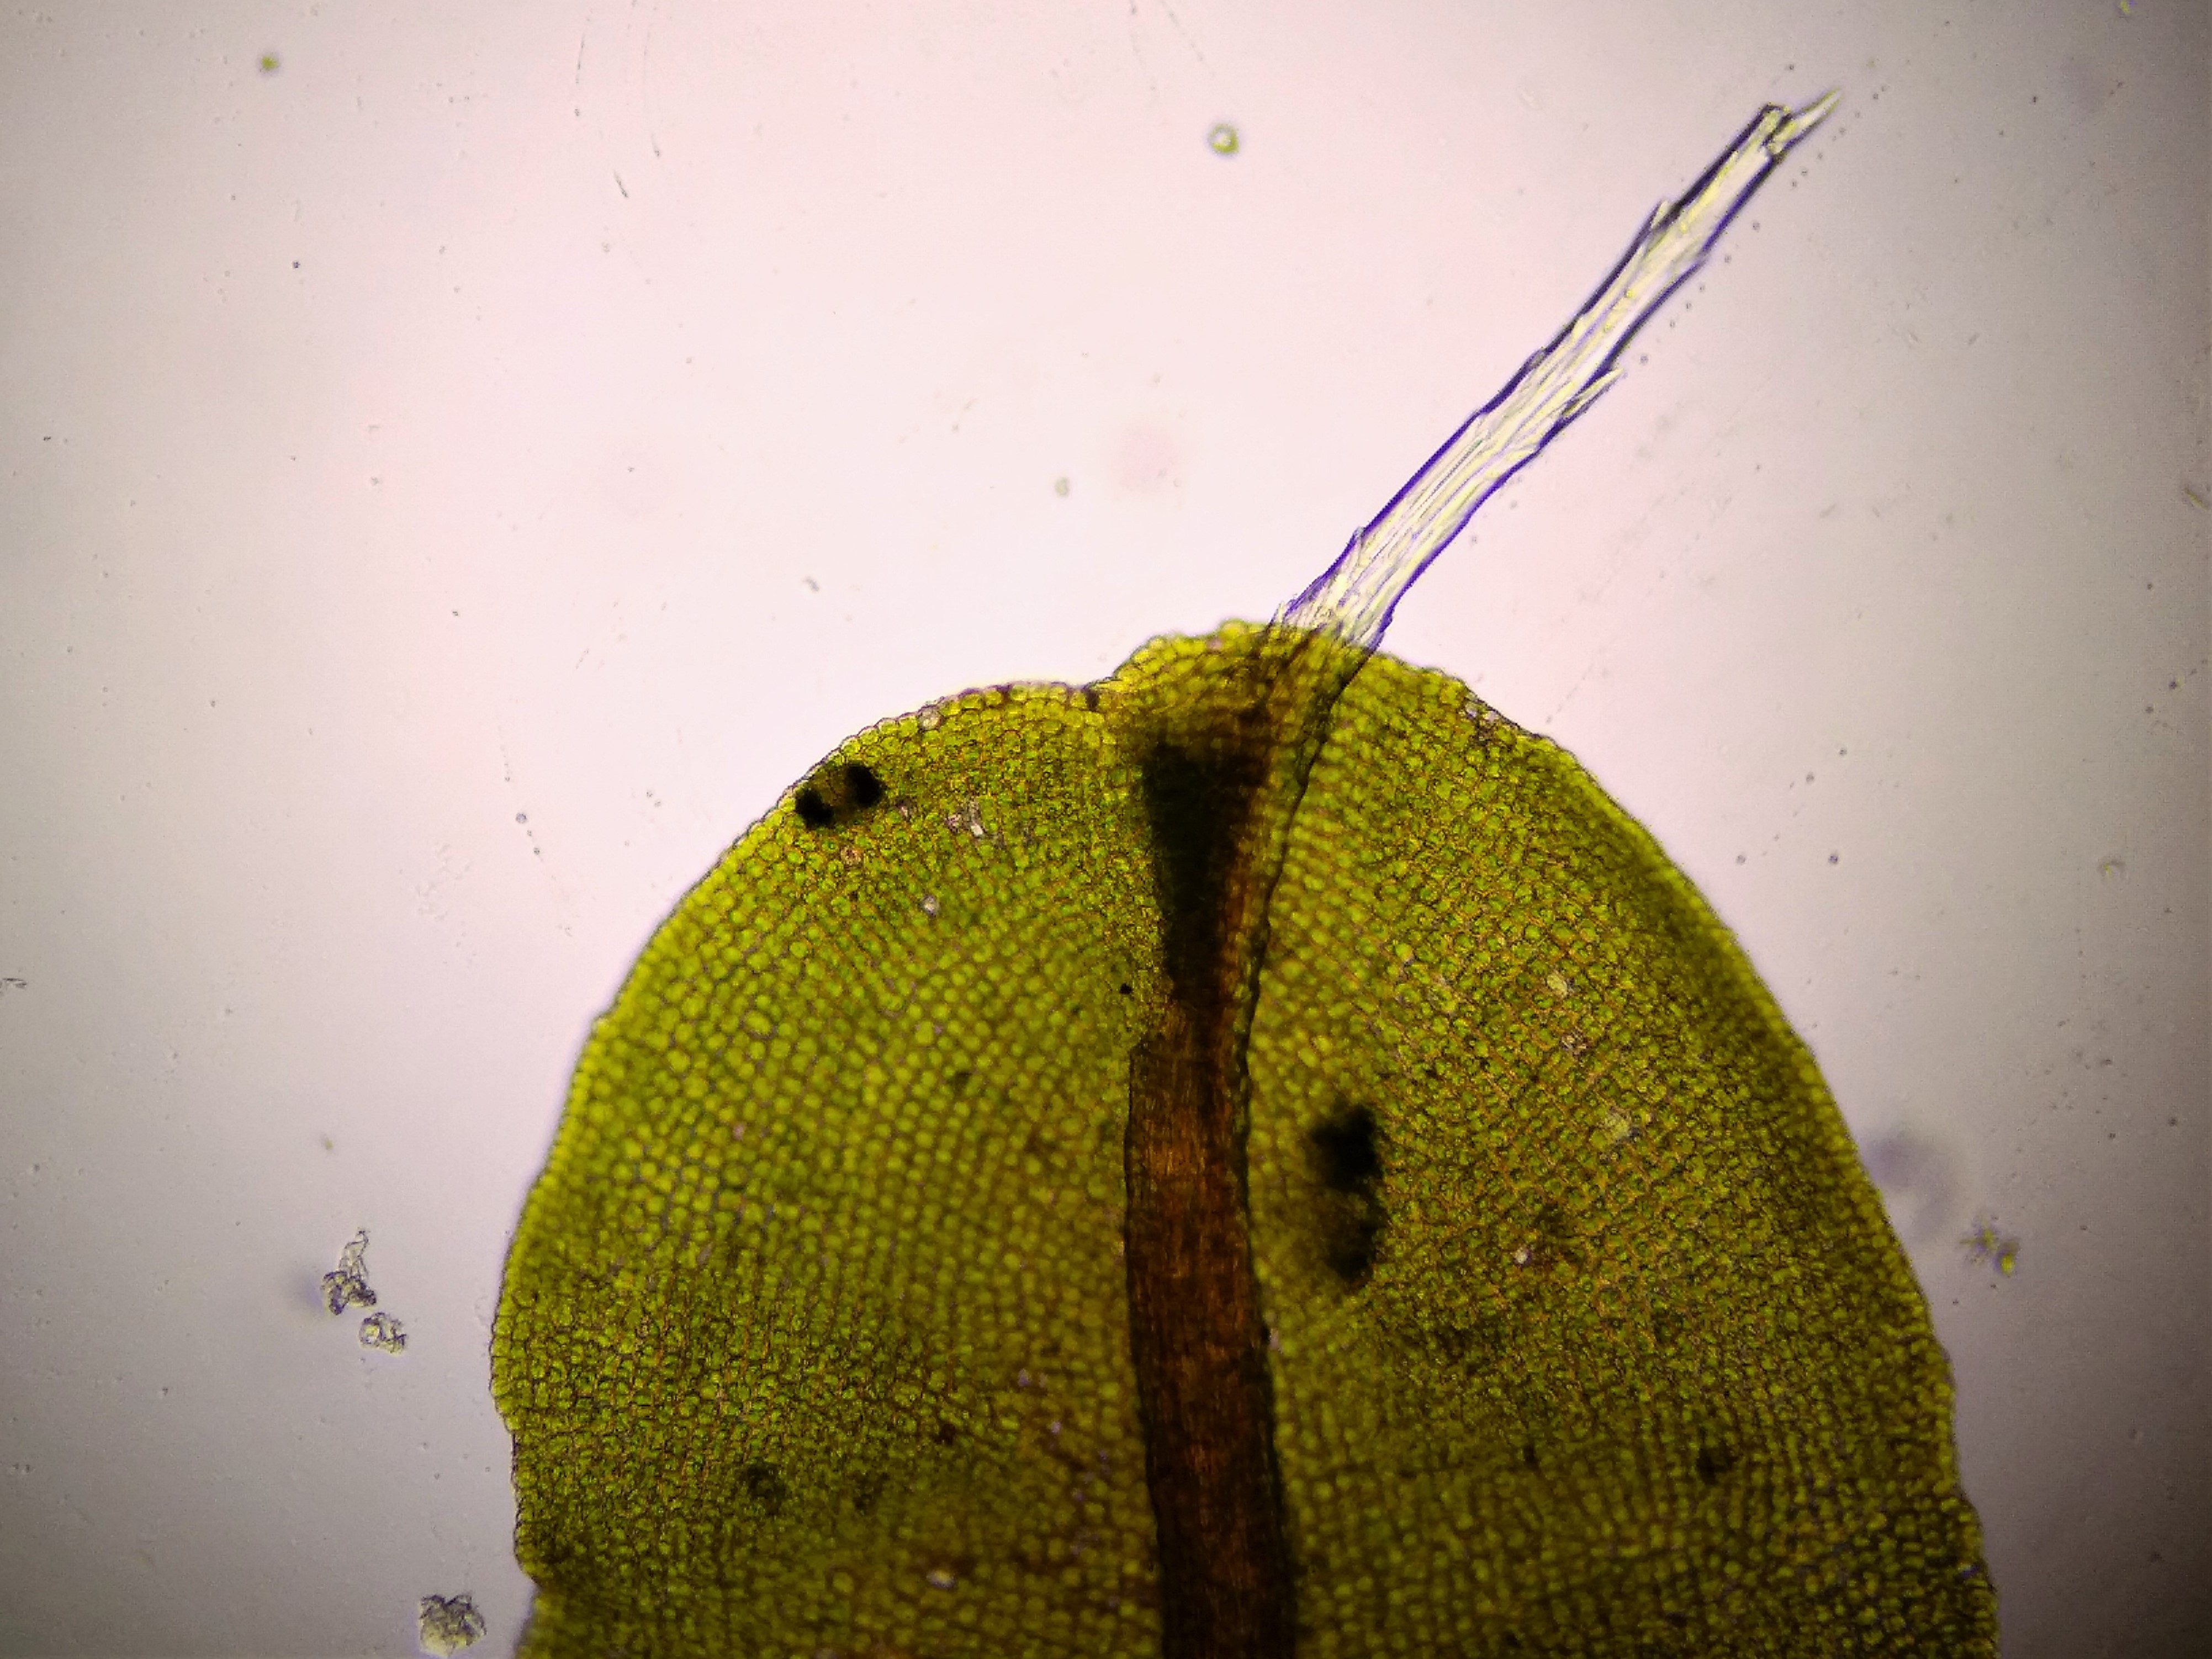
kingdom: Plantae
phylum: Bryophyta
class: Bryopsida
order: Pottiales
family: Pottiaceae
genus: Syntrichia
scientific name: Syntrichia virescens
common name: Grøn hårstjerne
